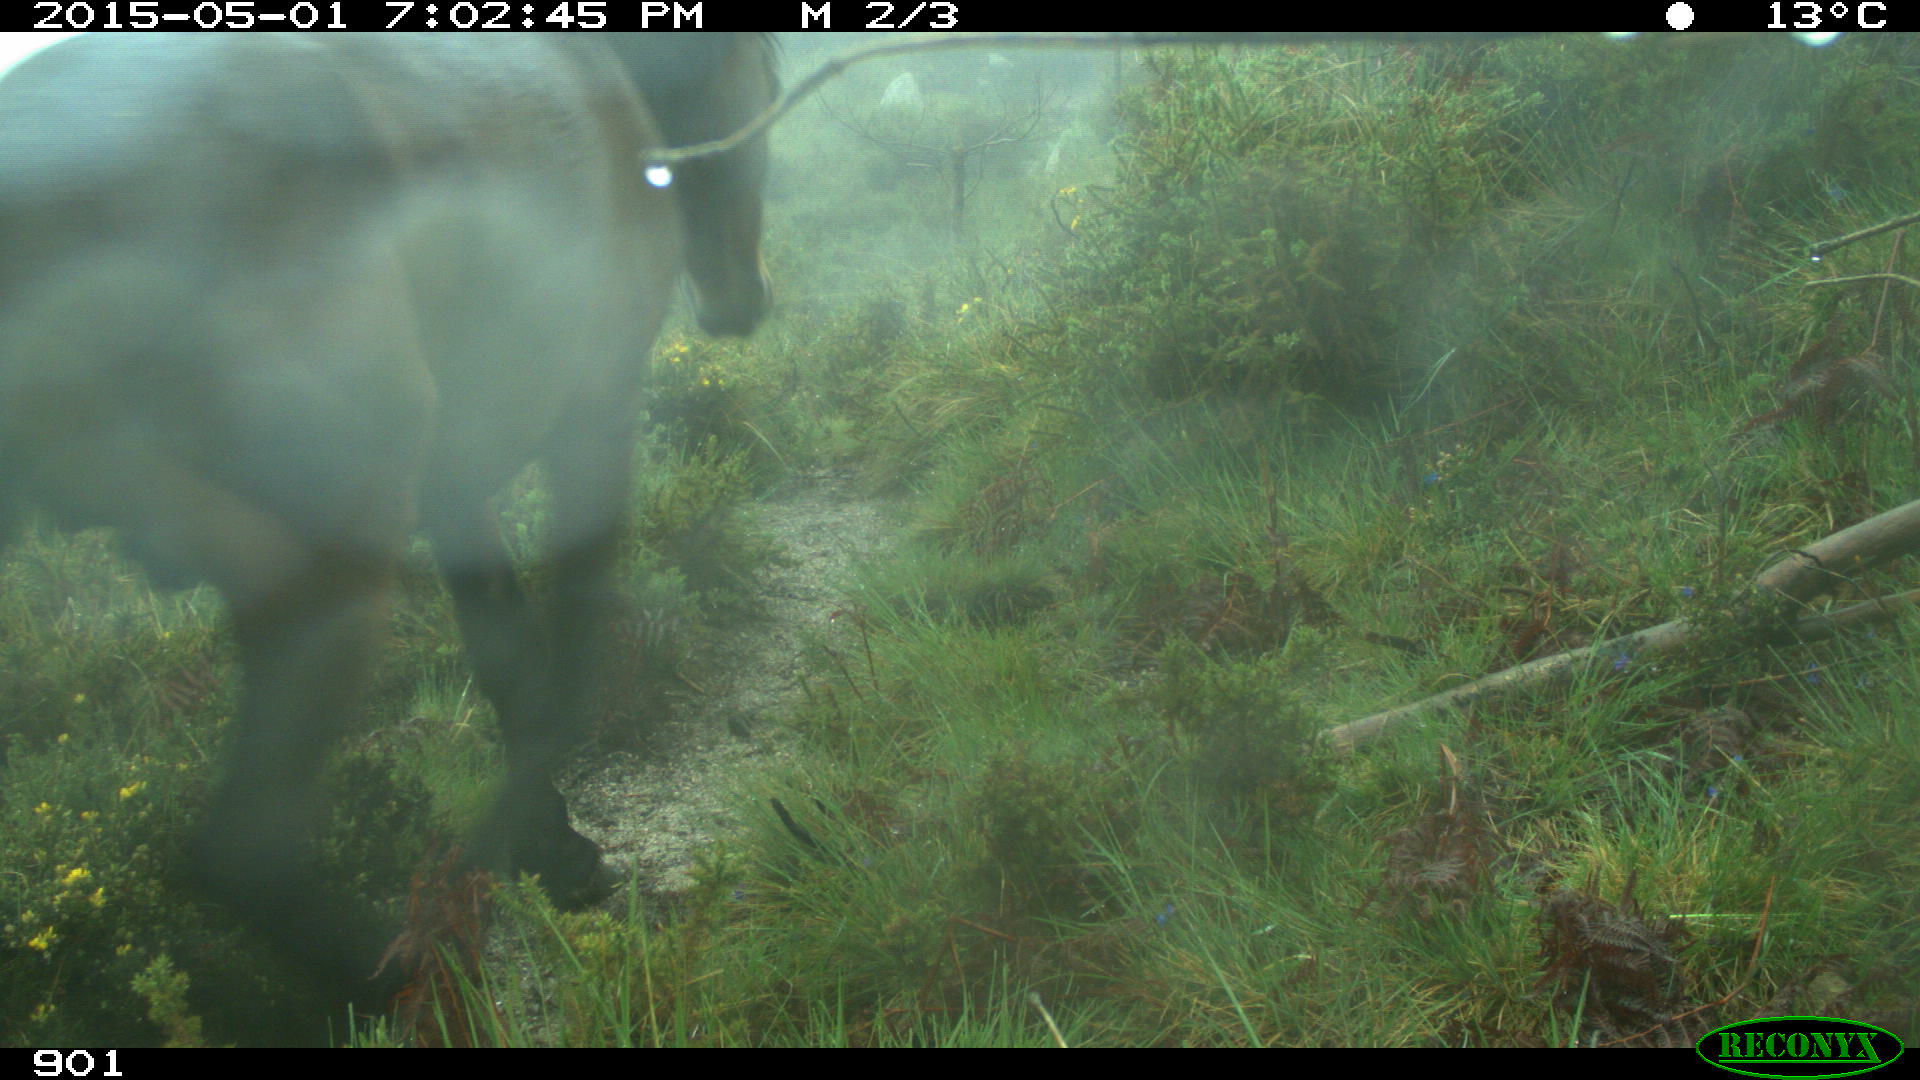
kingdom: Animalia
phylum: Chordata
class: Mammalia
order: Perissodactyla
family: Equidae
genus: Equus
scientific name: Equus caballus
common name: Horse
